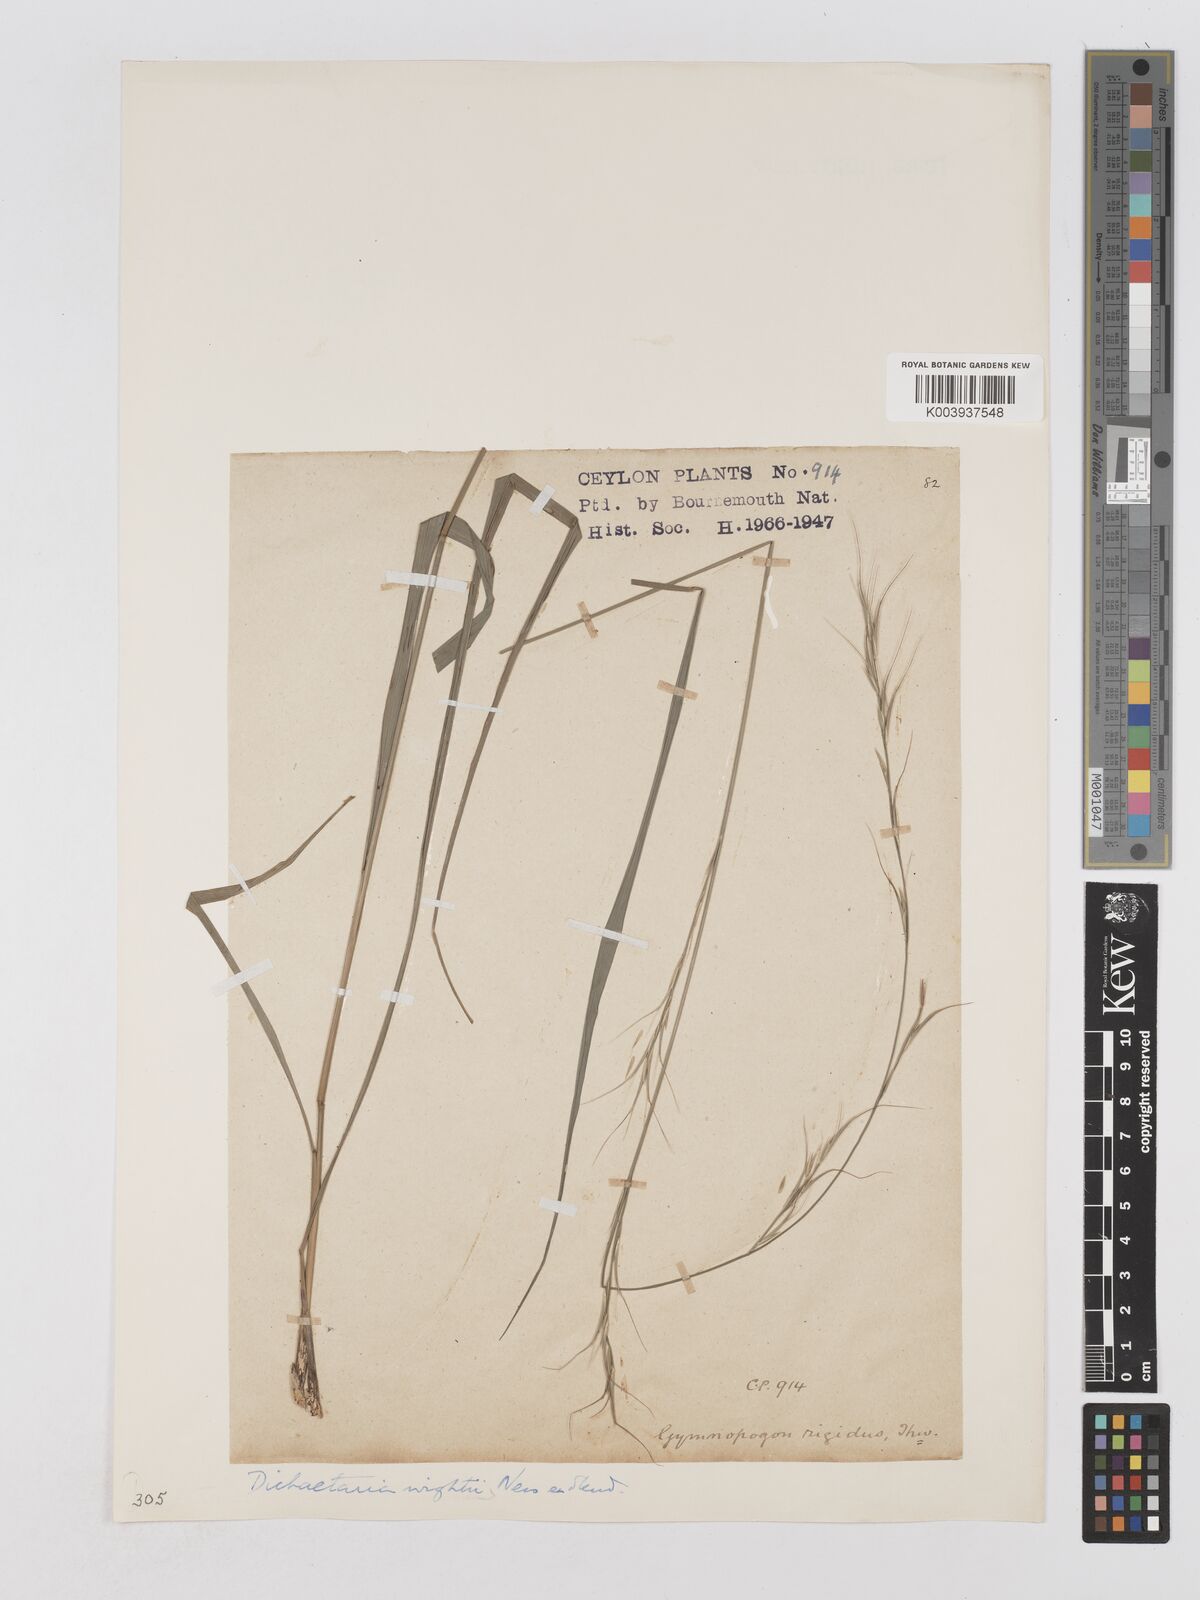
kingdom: Plantae
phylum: Tracheophyta
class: Liliopsida
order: Poales
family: Poaceae
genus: Dichaetaria
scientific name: Dichaetaria wightii
